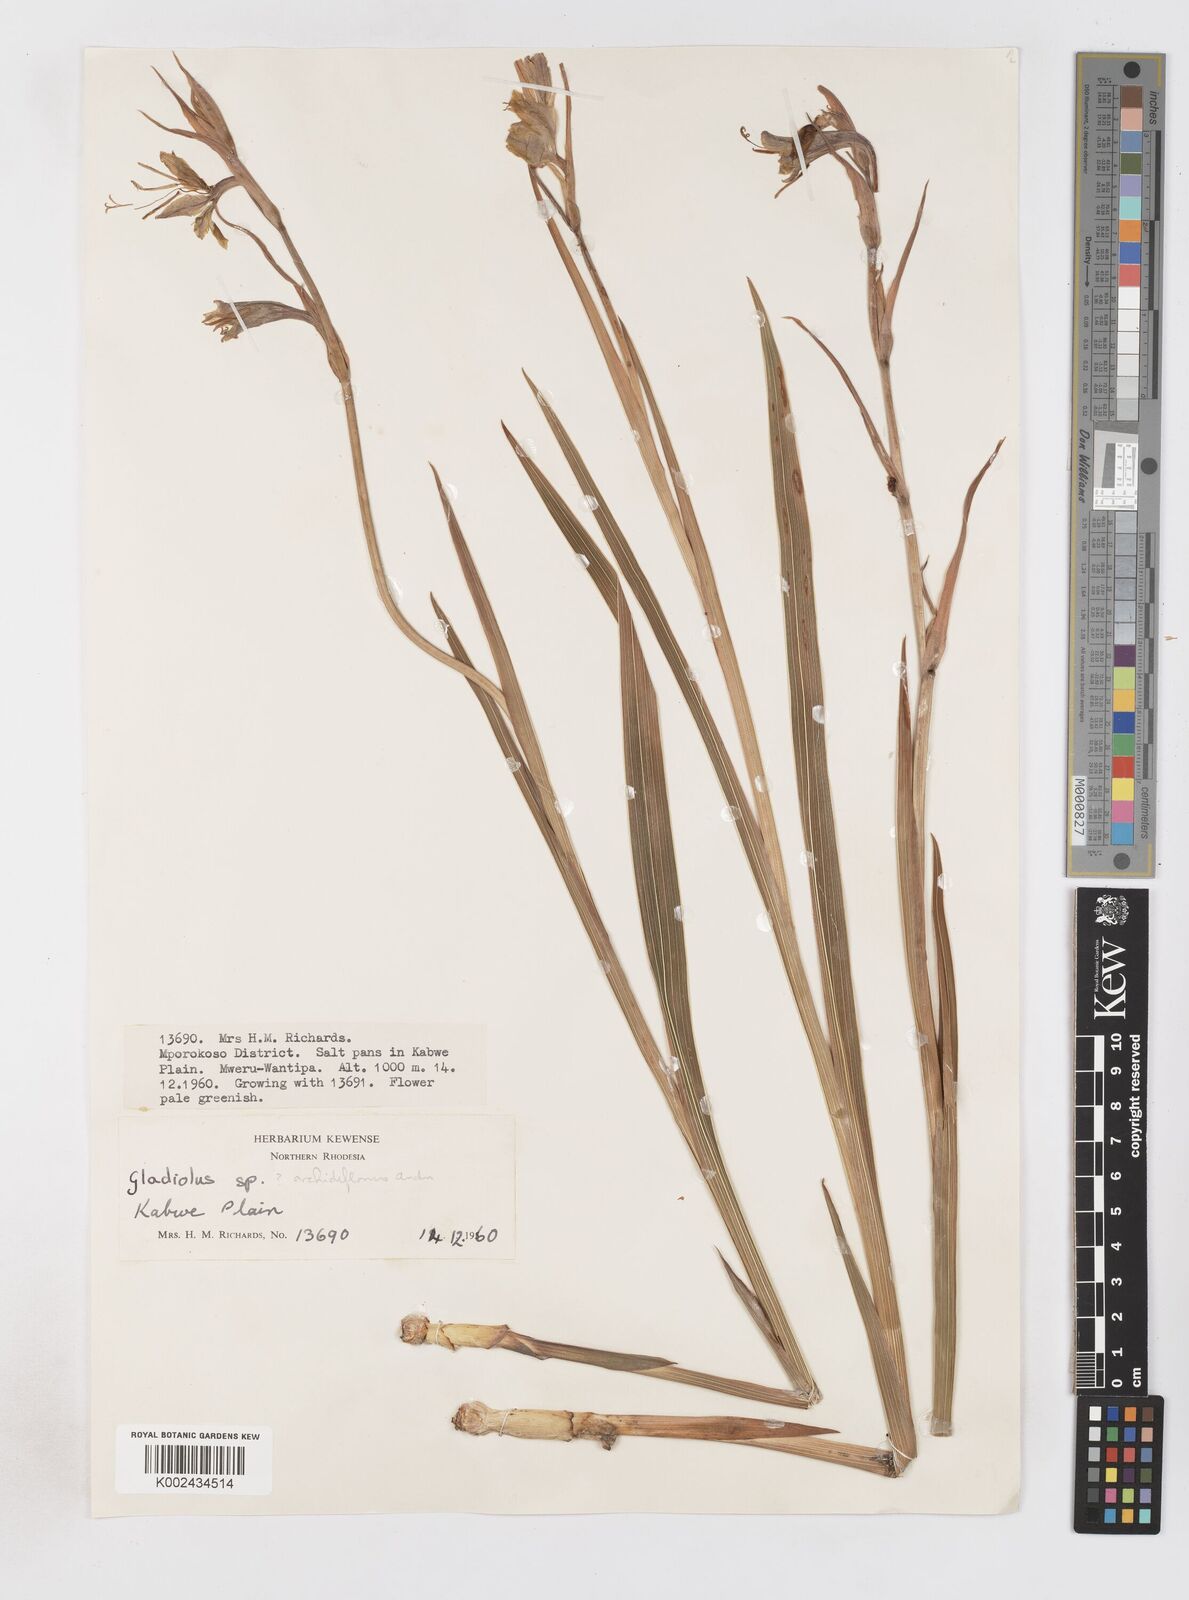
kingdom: Plantae
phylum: Tracheophyta
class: Liliopsida
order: Asparagales
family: Iridaceae
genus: Gladiolus
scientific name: Gladiolus dalenii
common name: Cornflag
